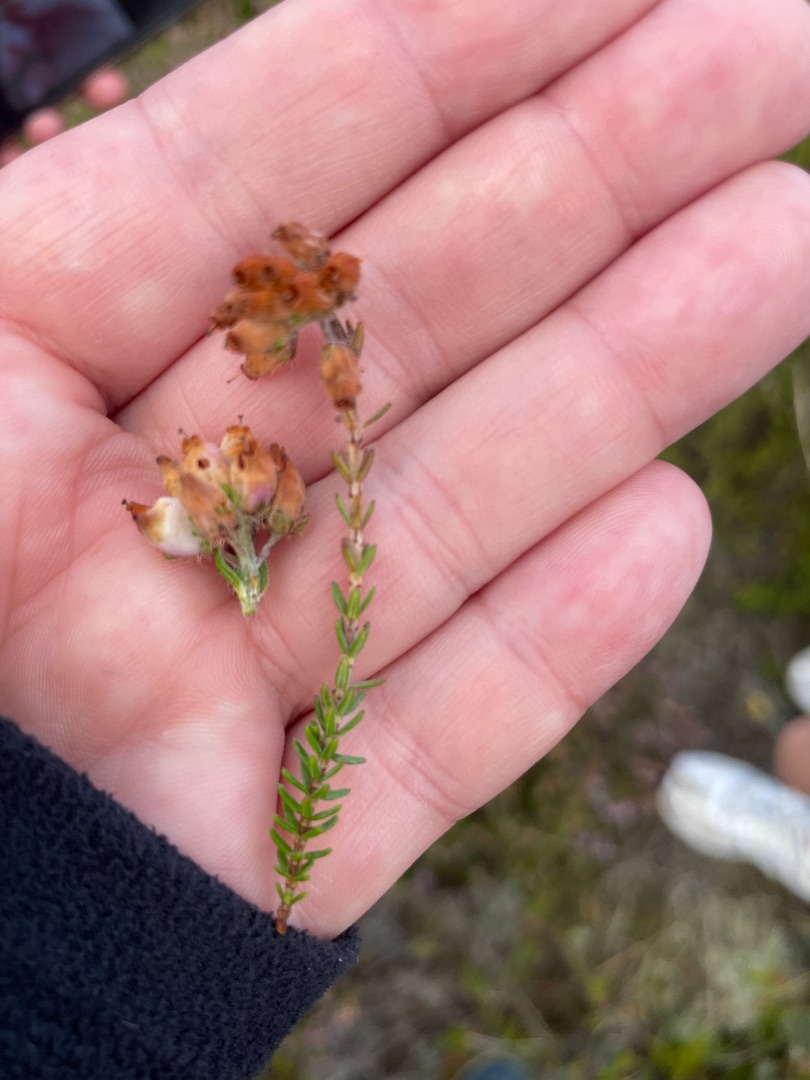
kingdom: Plantae
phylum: Tracheophyta
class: Magnoliopsida
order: Ericales
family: Ericaceae
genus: Erica
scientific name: Erica tetralix
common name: Klokkelyng
